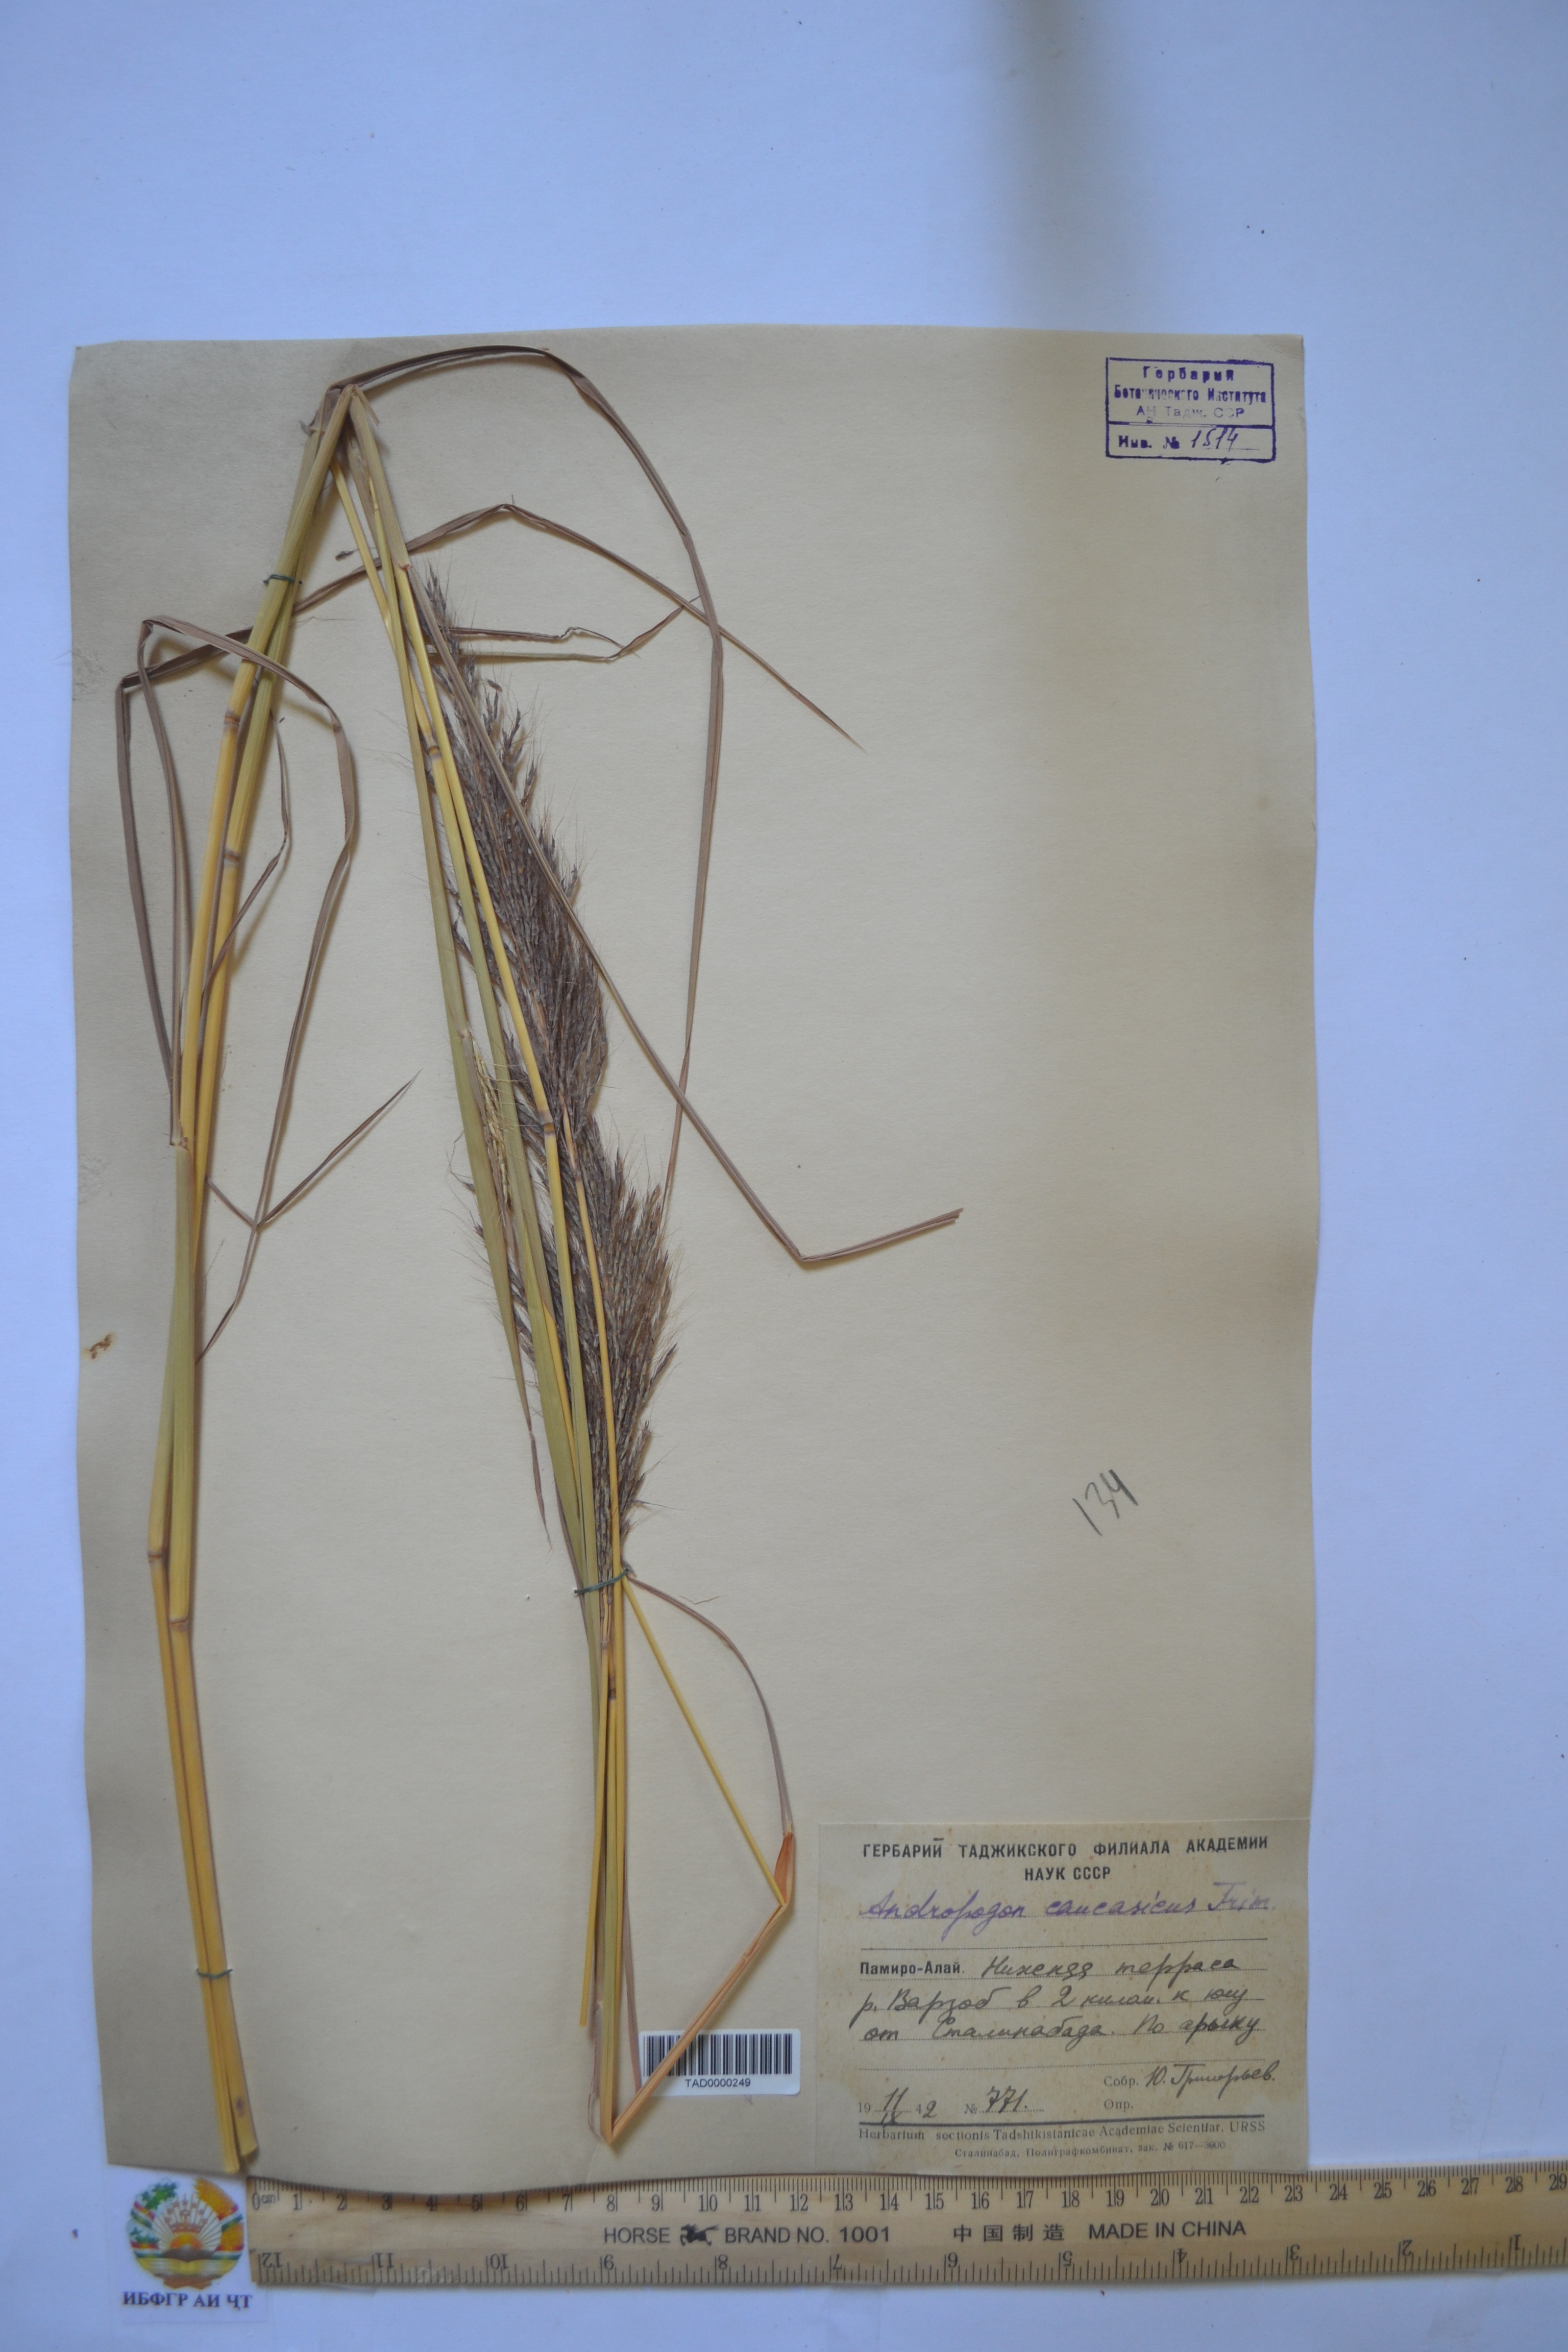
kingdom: Plantae
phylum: Tracheophyta
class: Liliopsida
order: Poales
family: Poaceae
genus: Bothriochloa
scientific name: Bothriochloa bladhii
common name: Caucasian bluestem
